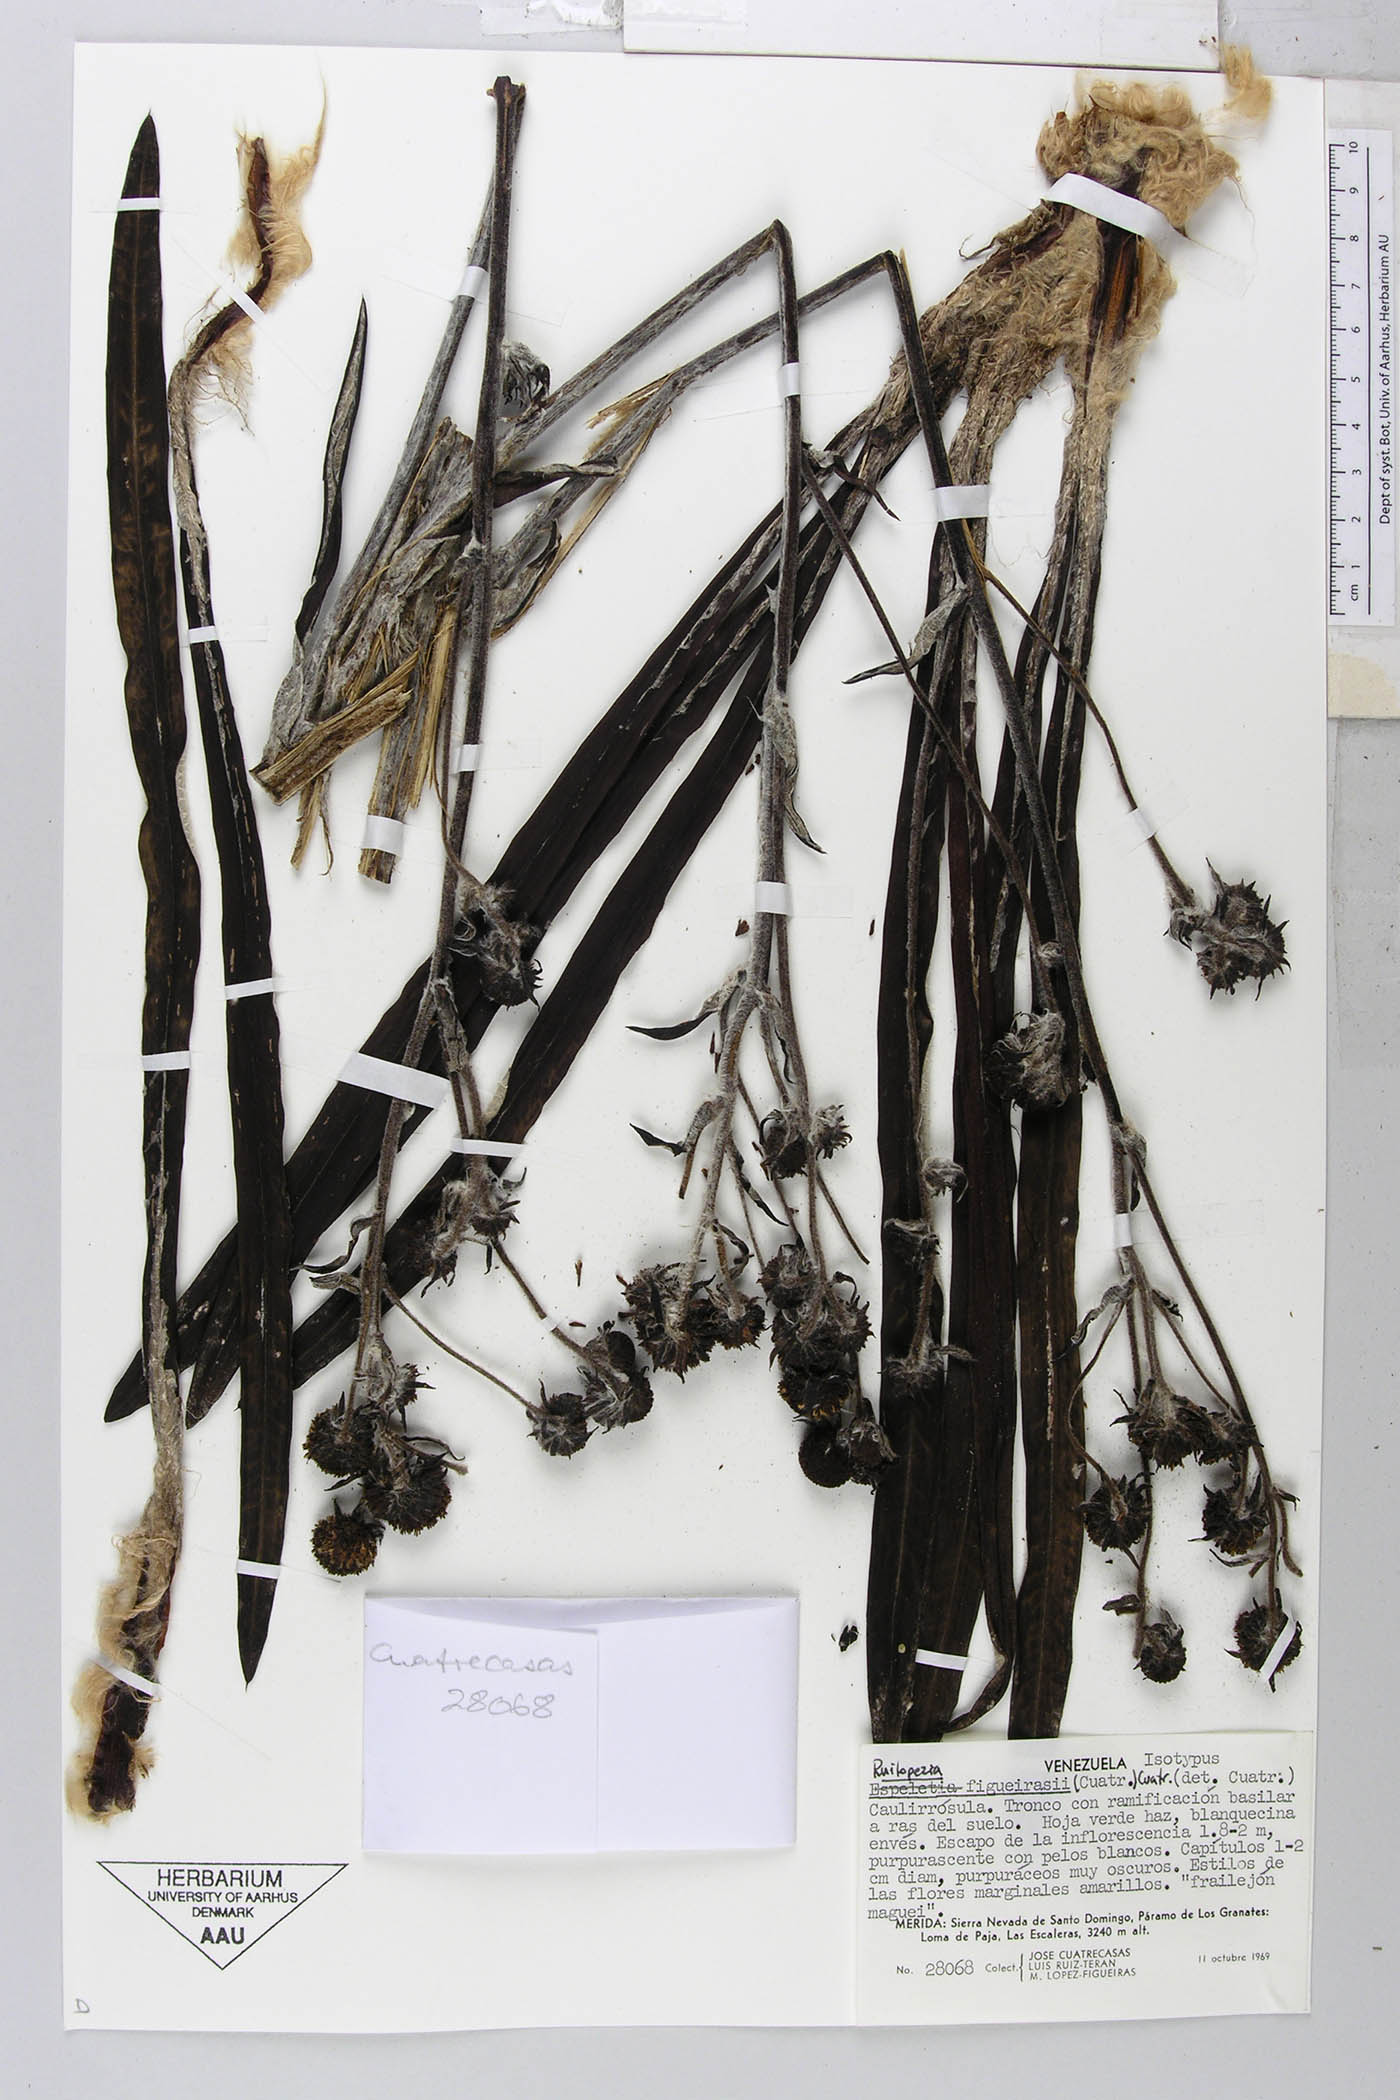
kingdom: Plantae
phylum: Tracheophyta
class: Magnoliopsida
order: Asterales
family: Asteraceae
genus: Espeletia
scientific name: Espeletia figueirasii
